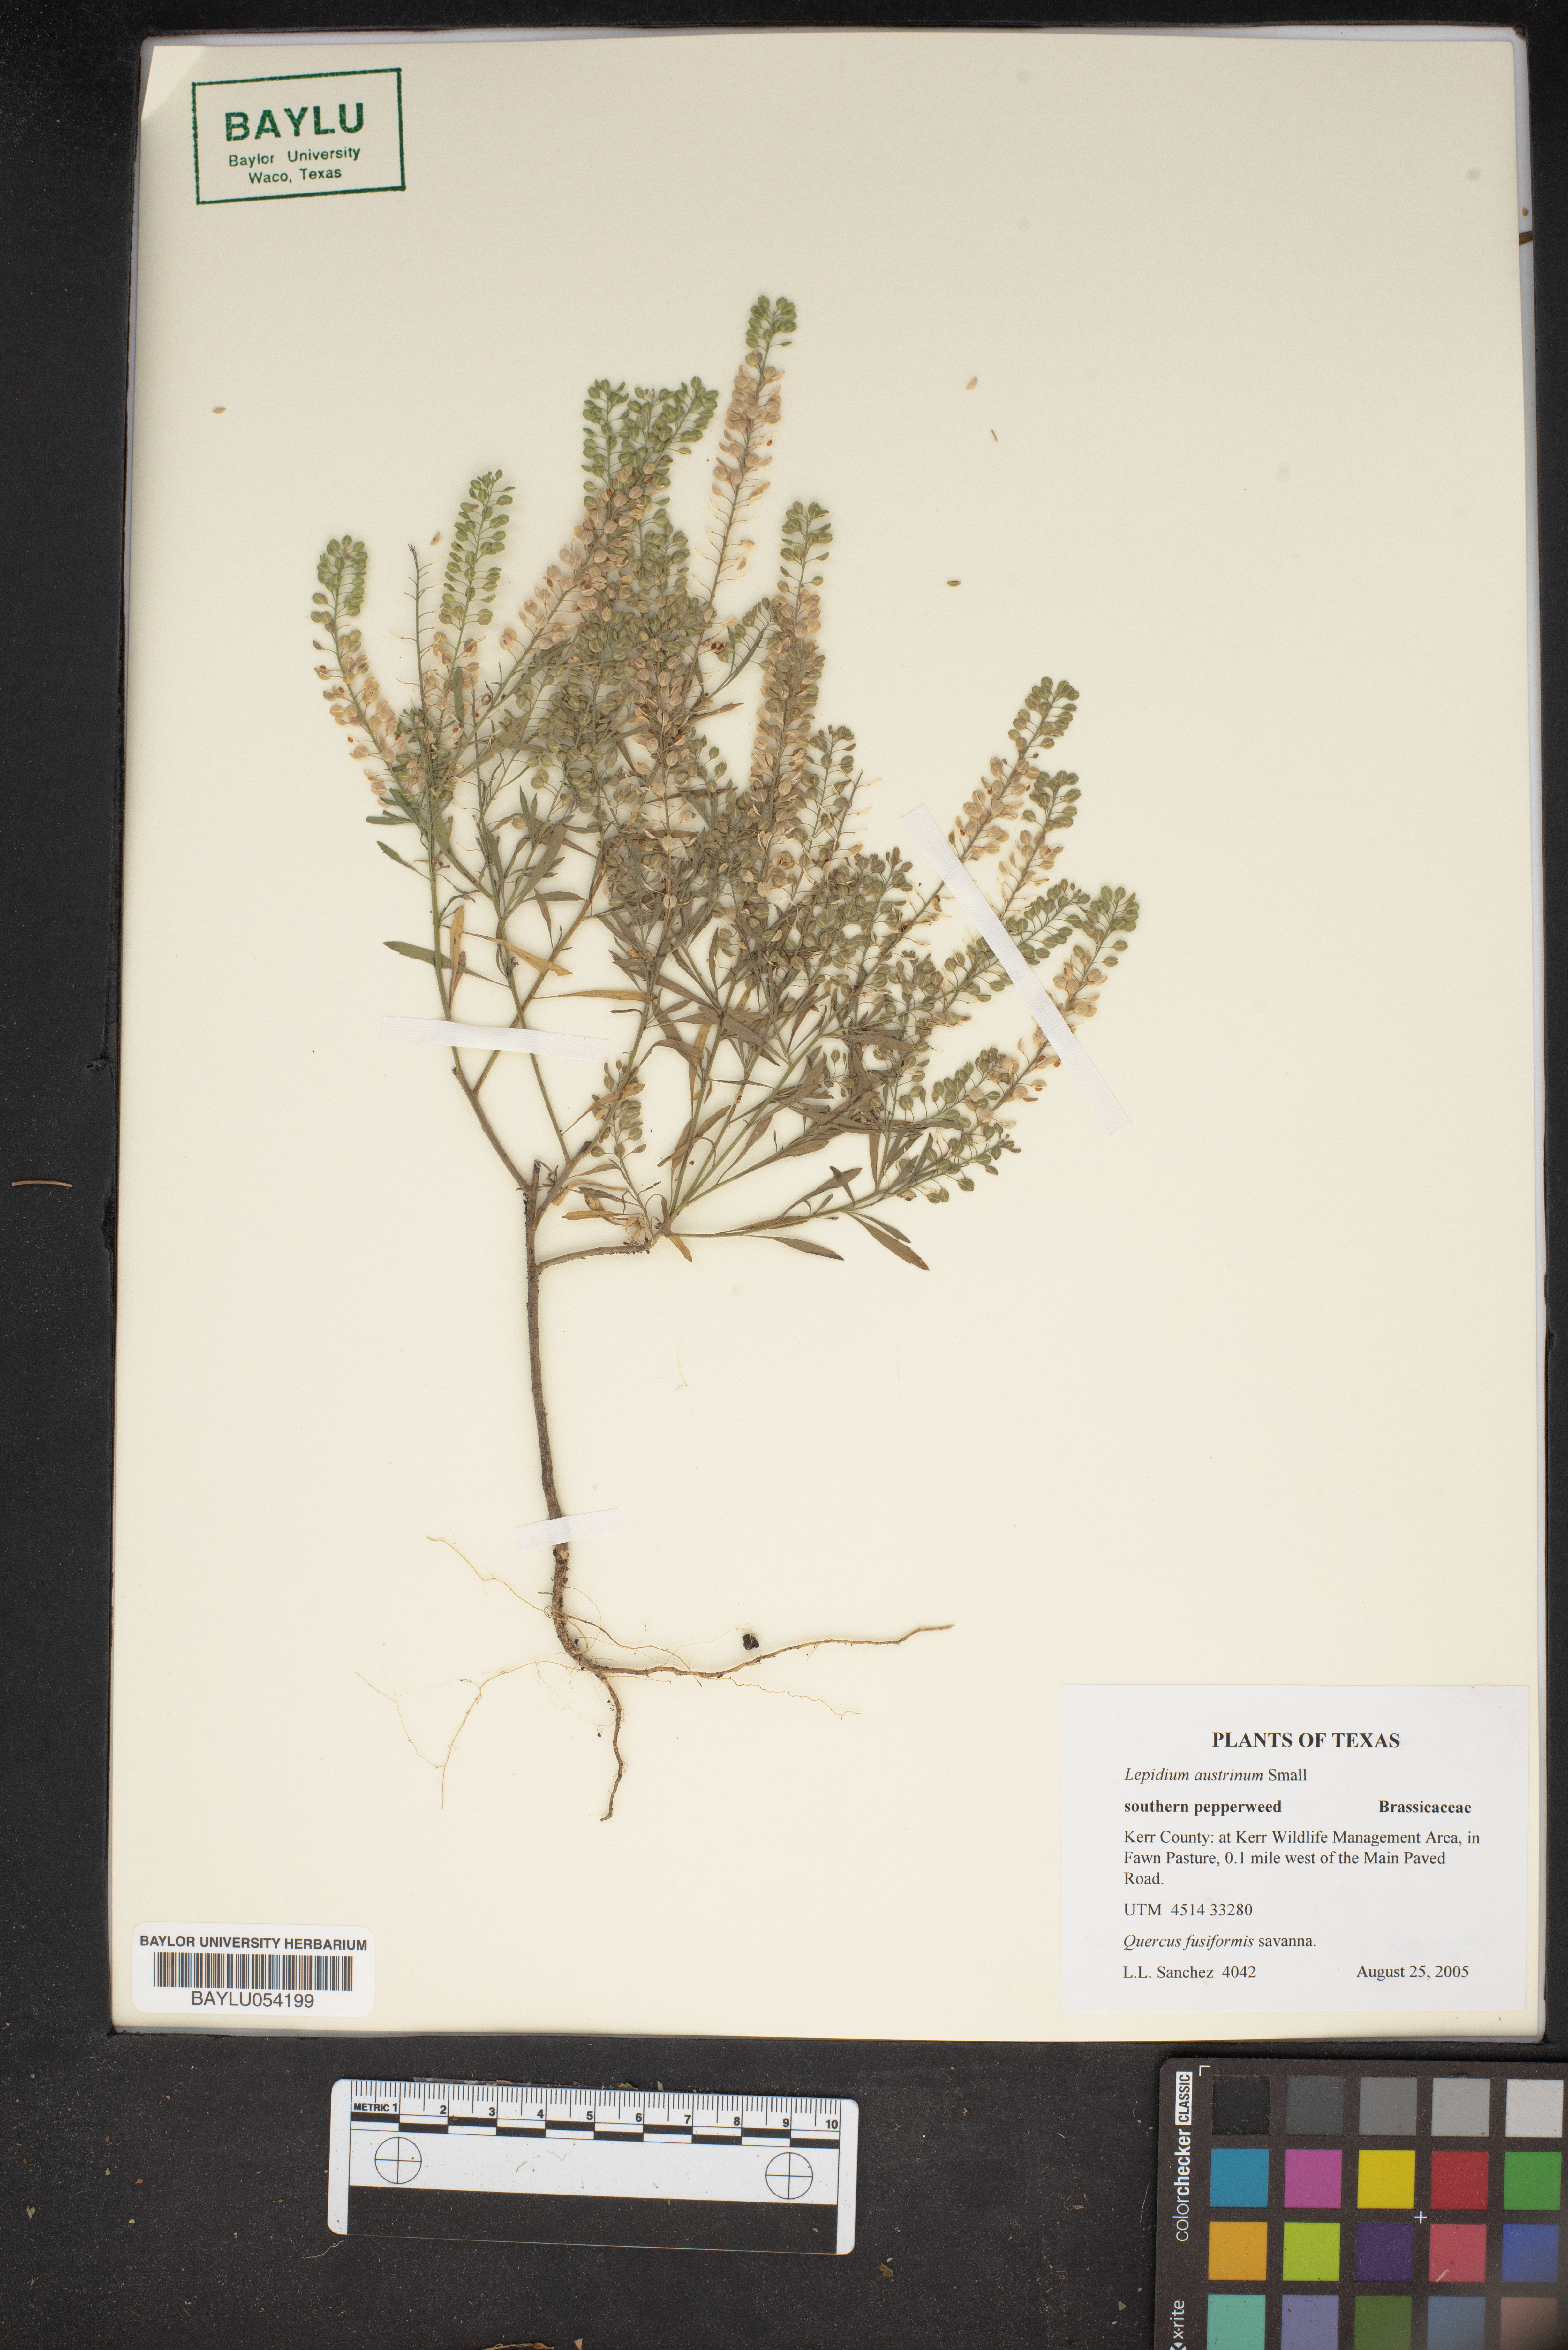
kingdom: Plantae
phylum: Tracheophyta
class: Magnoliopsida
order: Brassicales
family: Brassicaceae
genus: Lepidium
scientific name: Lepidium austrinum
